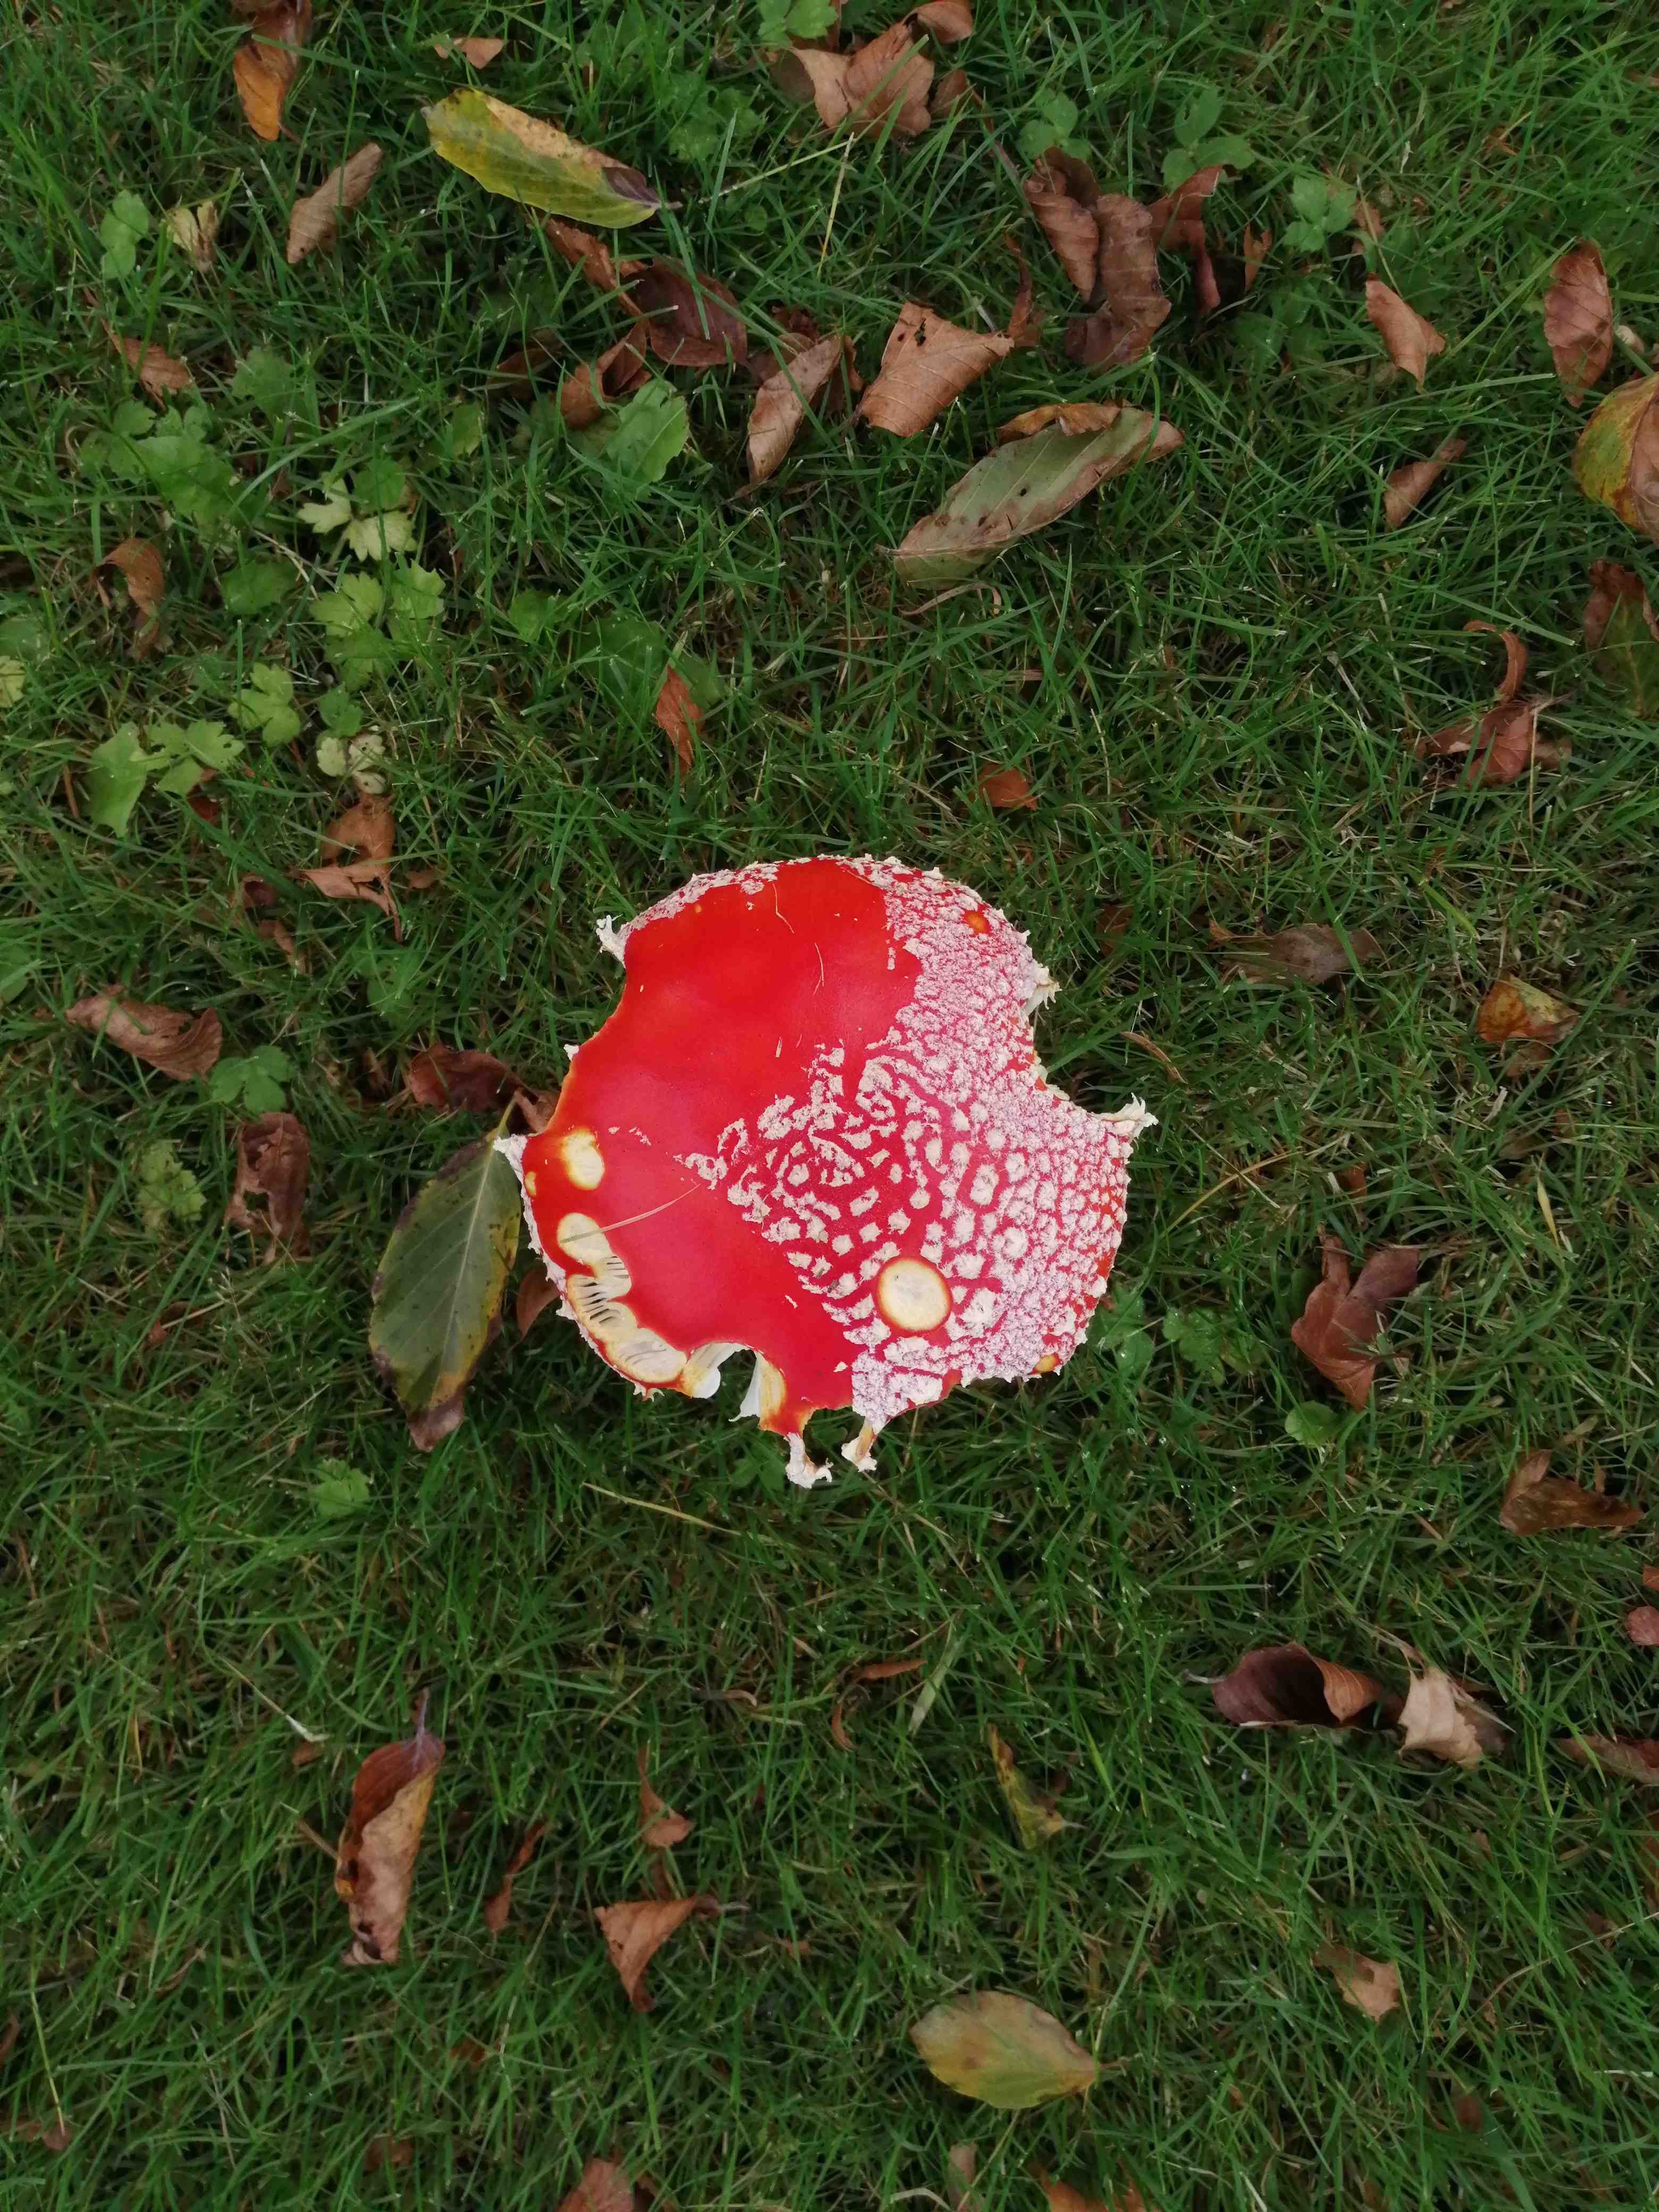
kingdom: Fungi
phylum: Basidiomycota
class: Agaricomycetes
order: Agaricales
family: Amanitaceae
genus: Amanita
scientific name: Amanita muscaria
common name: rød fluesvamp
